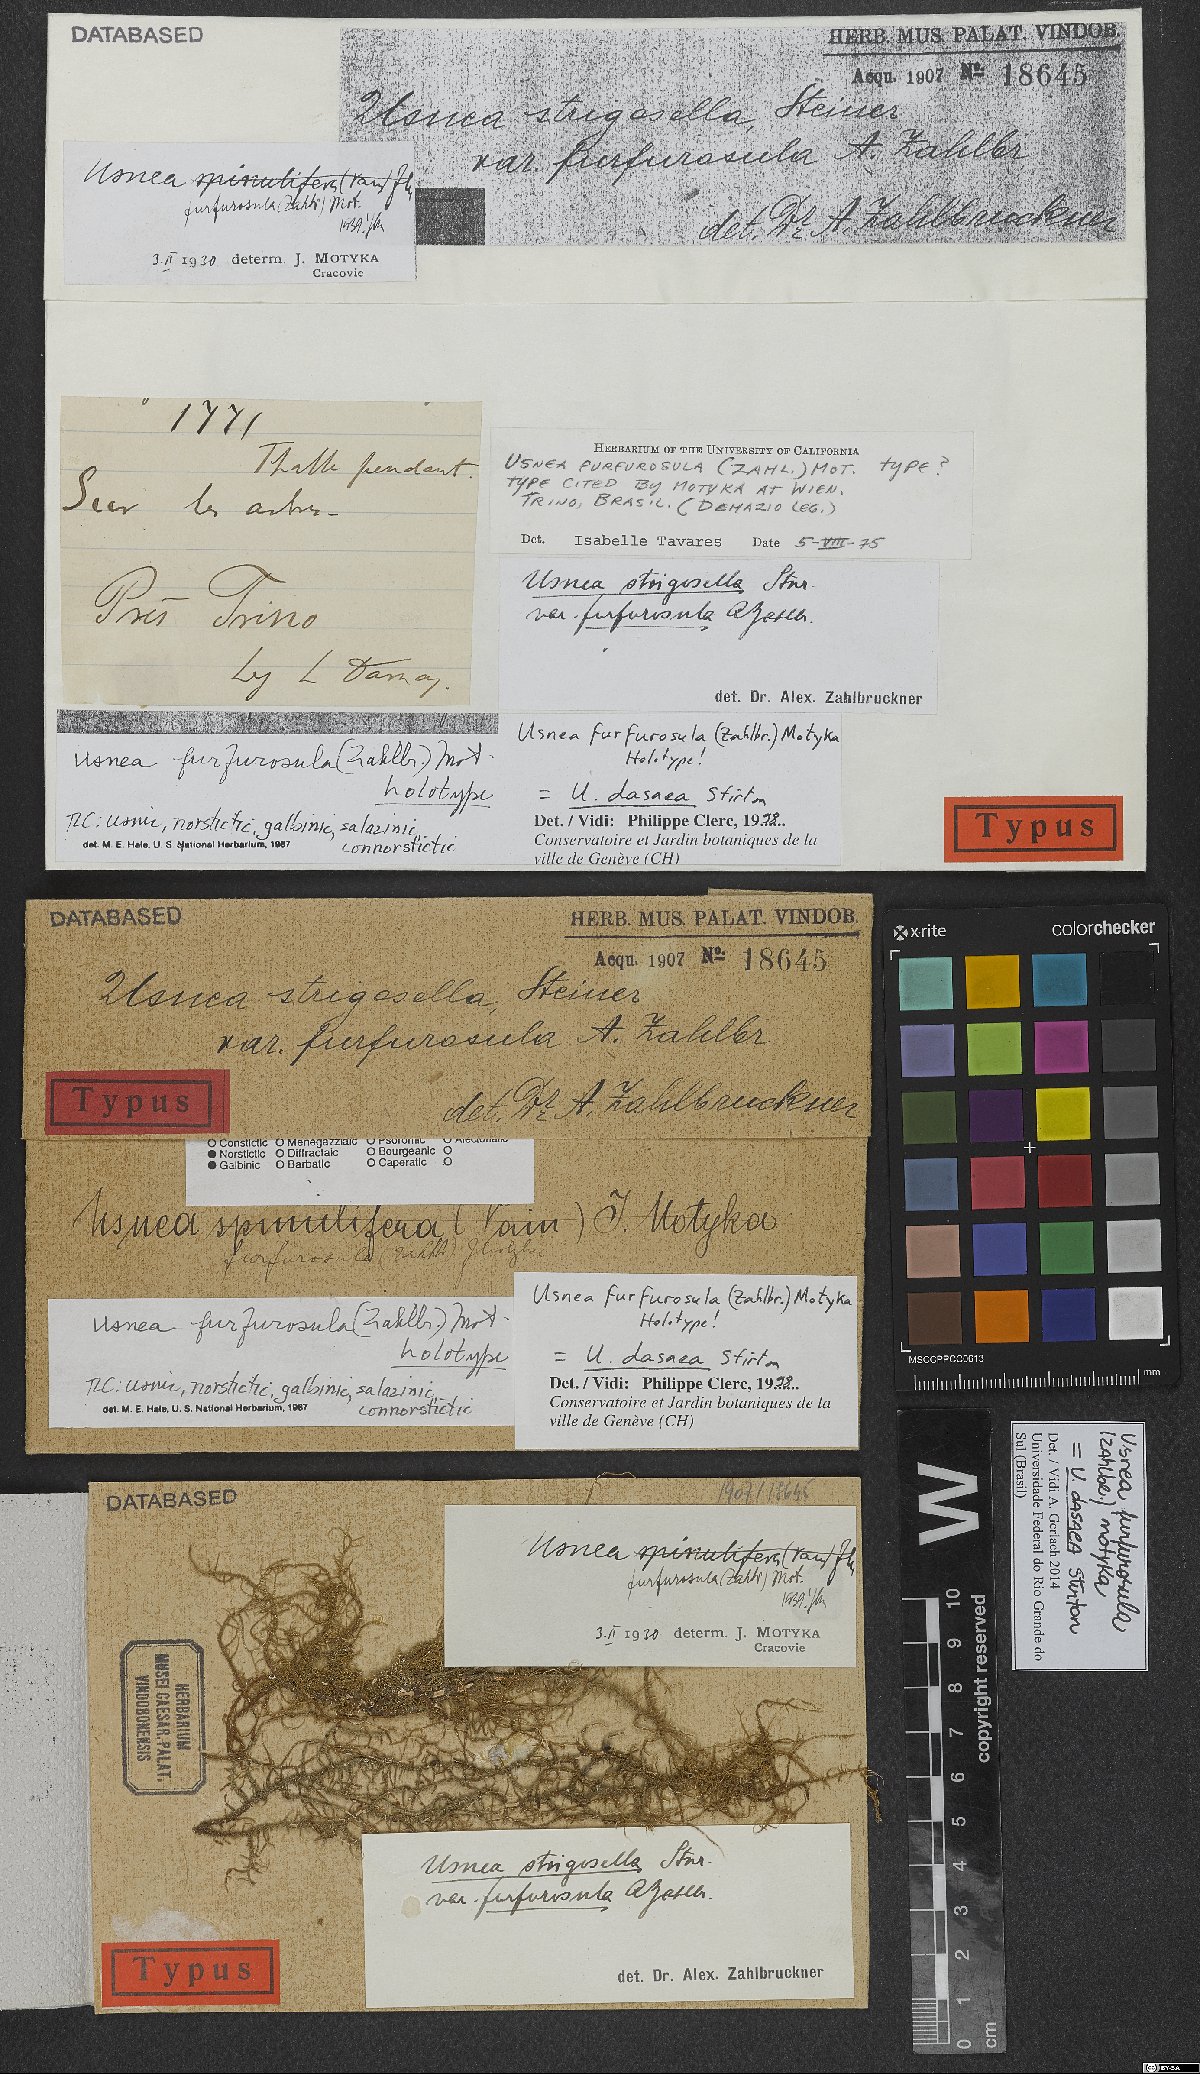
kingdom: Fungi
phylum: Ascomycota
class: Lecanoromycetes
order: Lecanorales
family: Parmeliaceae
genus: Usnea
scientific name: Usnea strigosella
